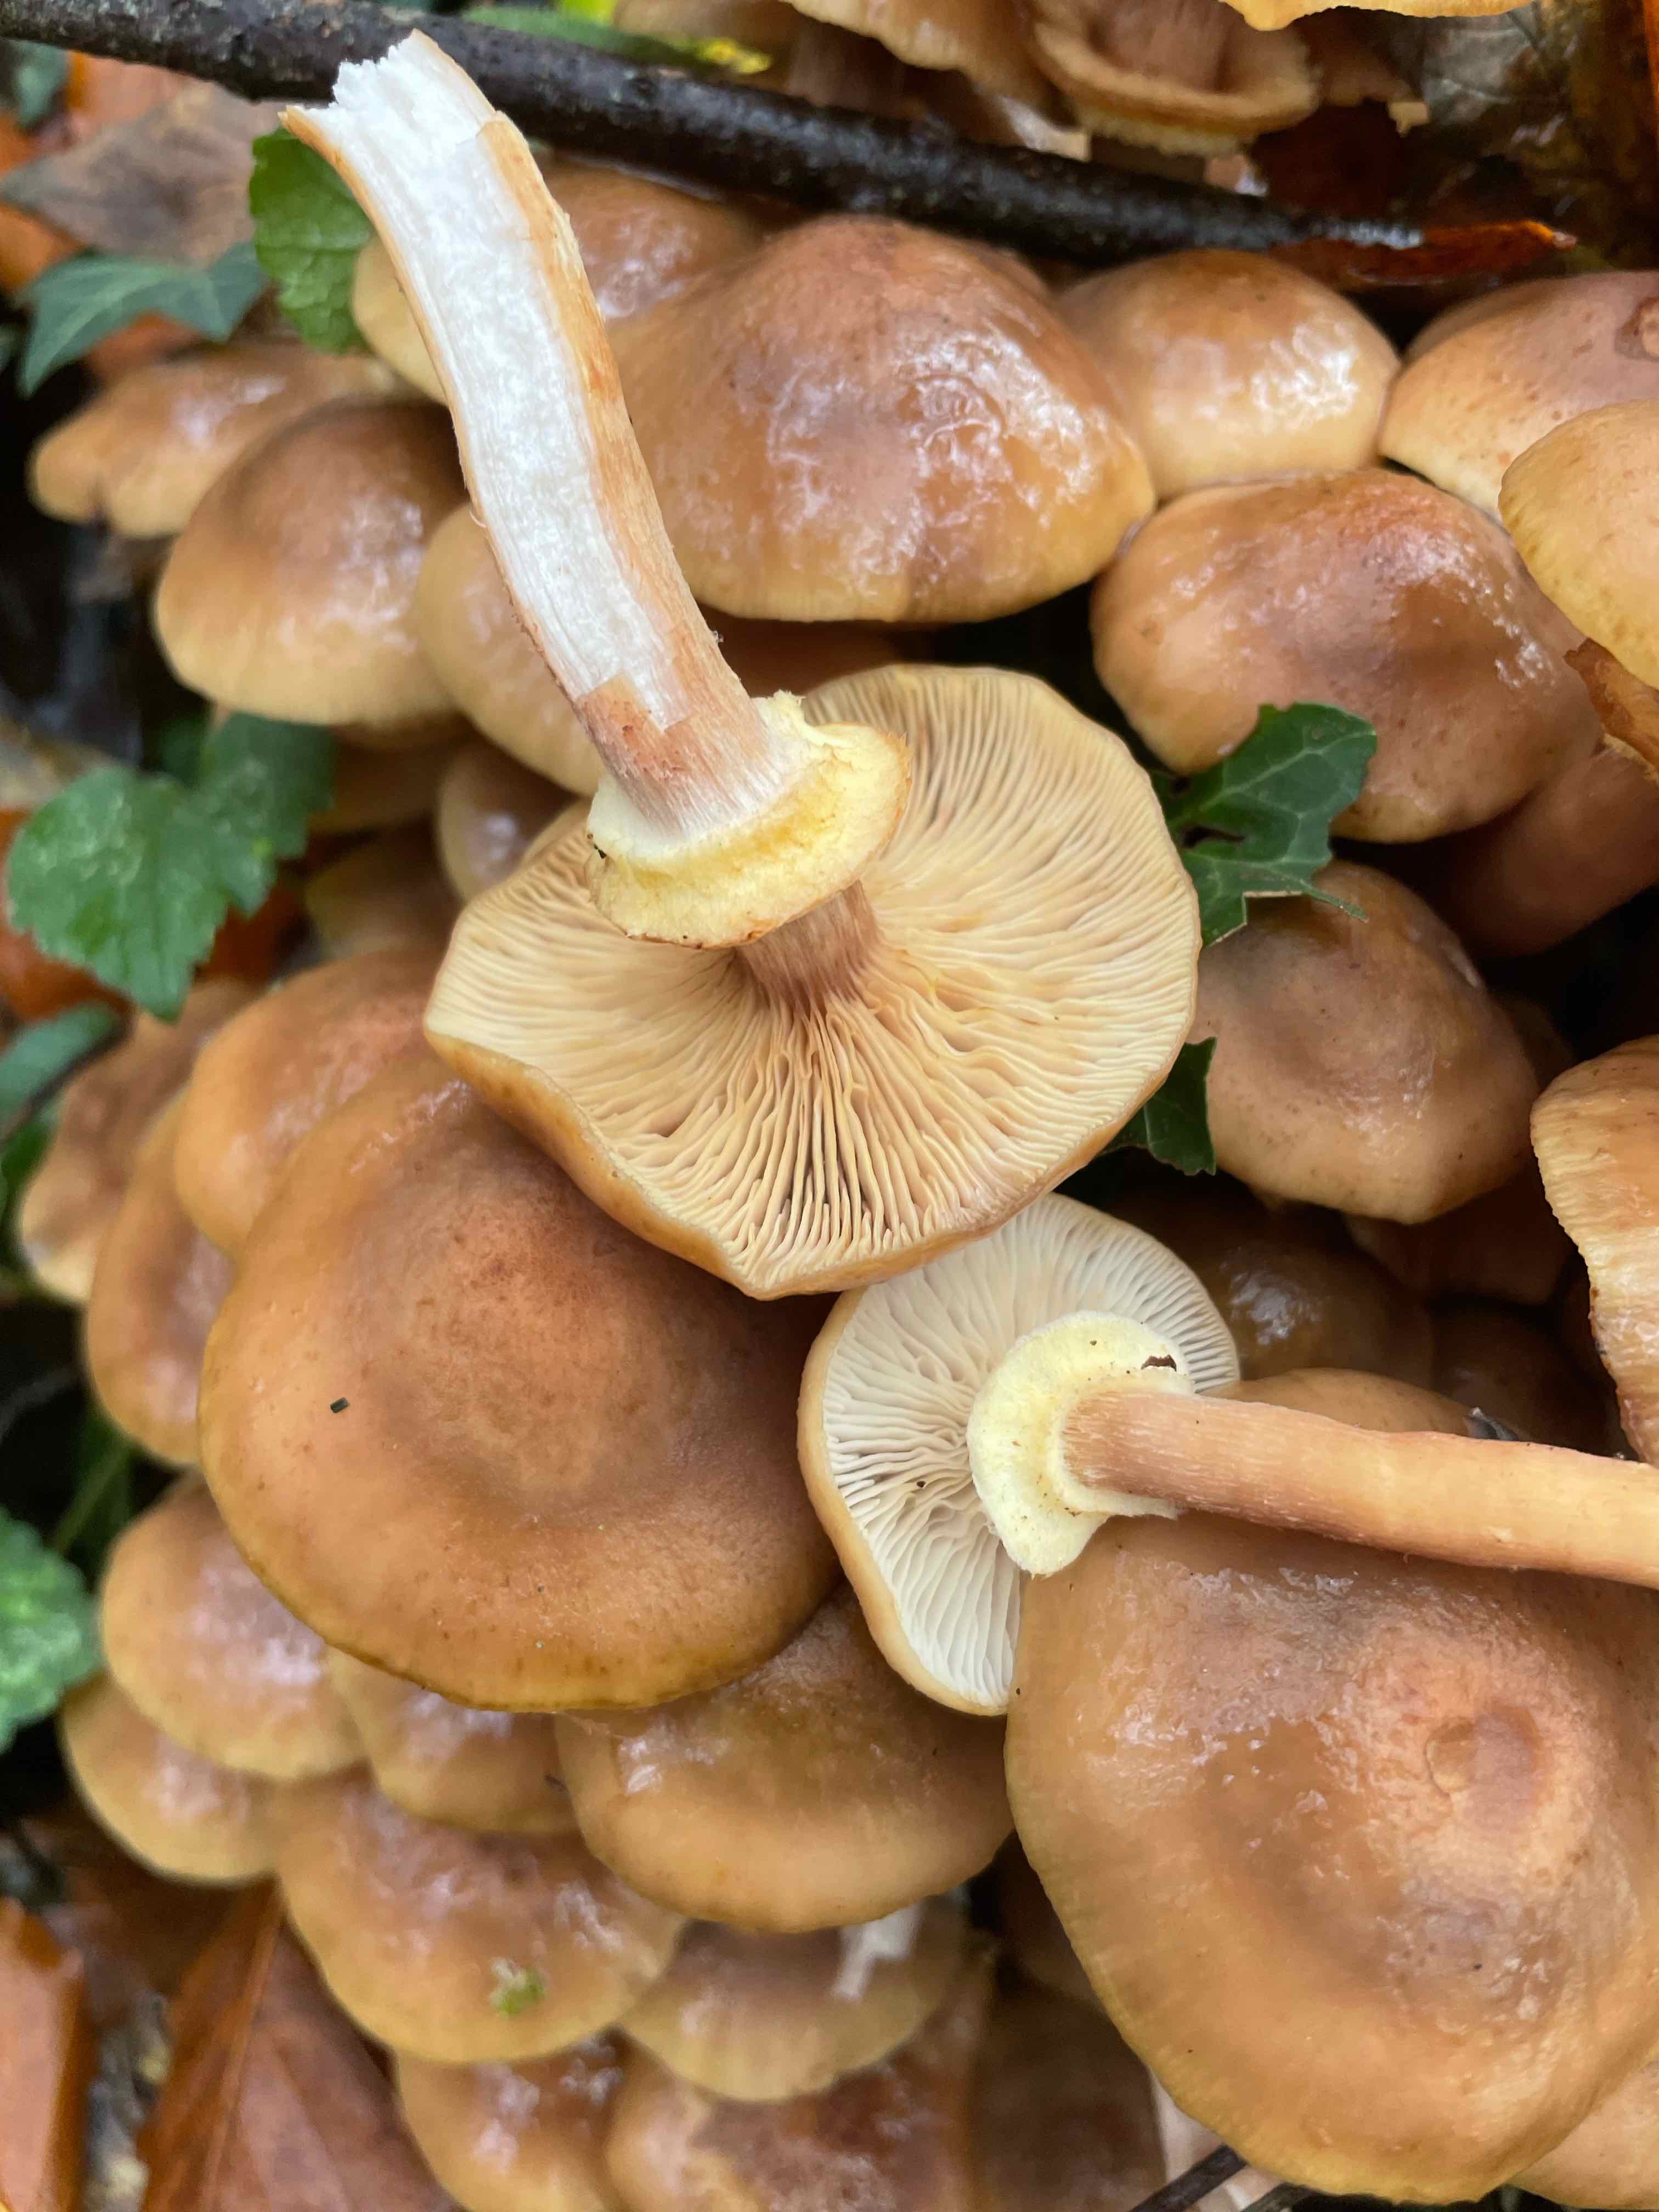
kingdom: Fungi
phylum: Basidiomycota
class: Agaricomycetes
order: Agaricales
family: Physalacriaceae
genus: Armillaria
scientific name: Armillaria mellea
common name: ægte honningsvamp
